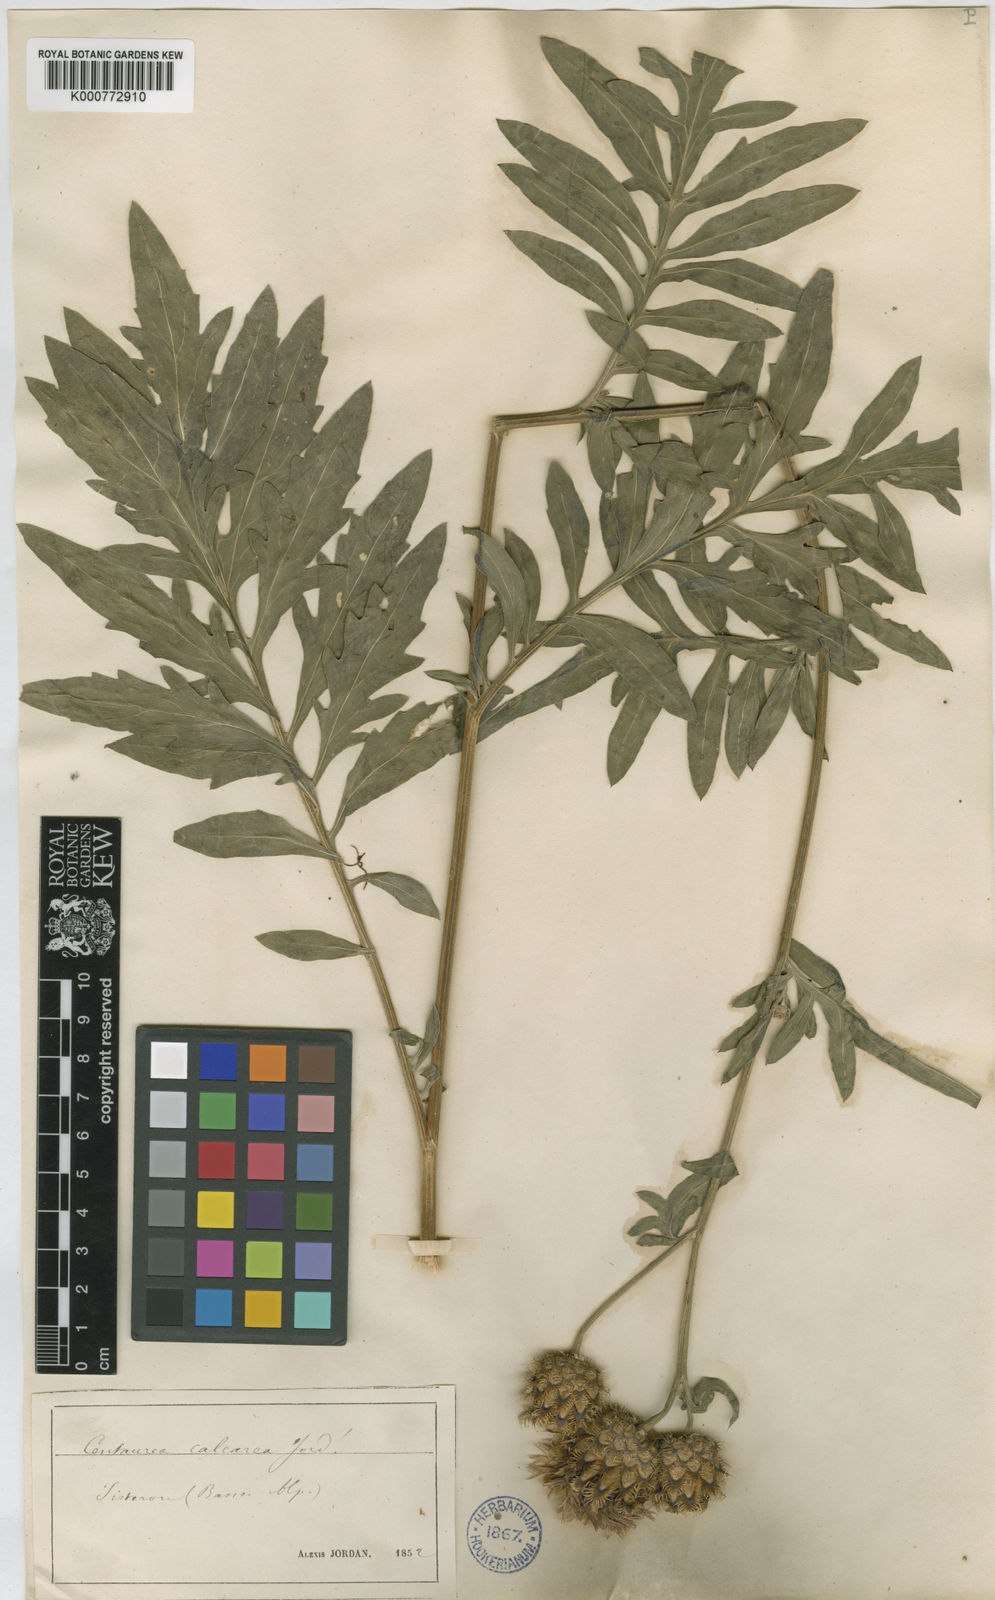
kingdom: Plantae
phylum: Tracheophyta
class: Magnoliopsida
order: Asterales
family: Asteraceae
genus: Centaurea
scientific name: Centaurea scabiosa
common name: Greater knapweed
